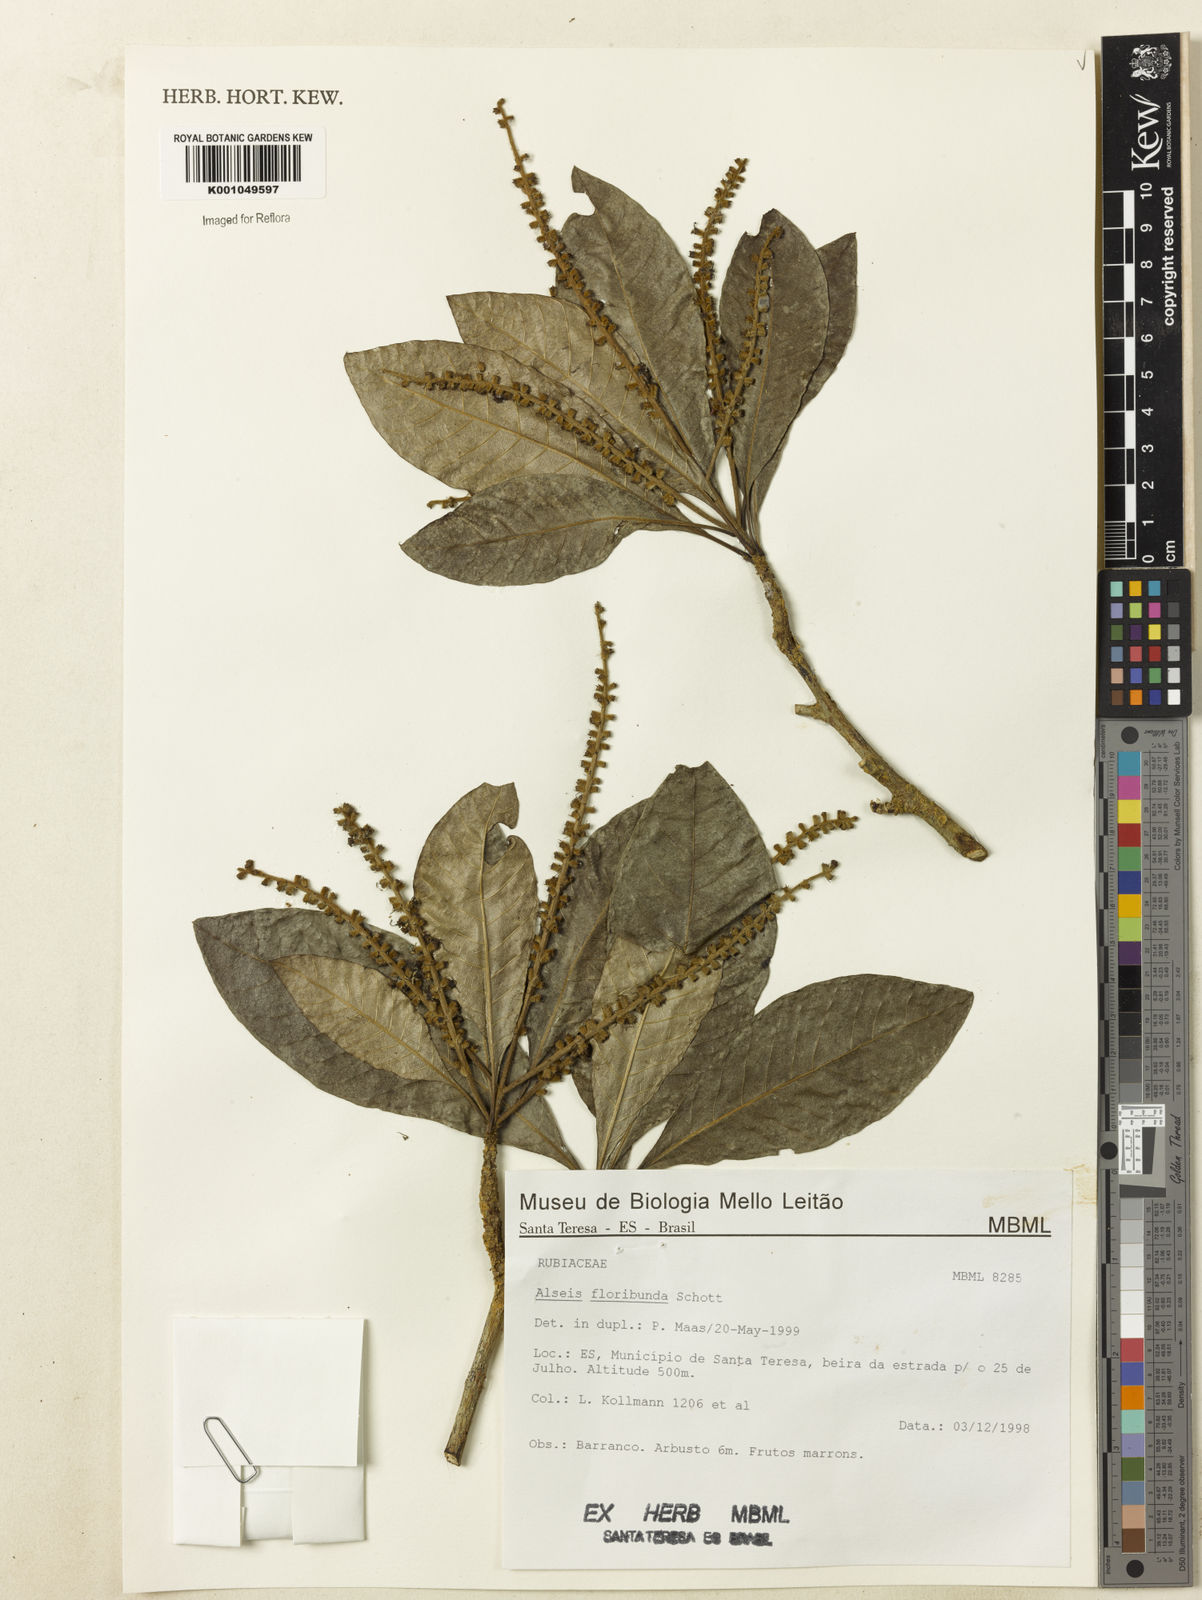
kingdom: Plantae
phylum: Tracheophyta
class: Magnoliopsida
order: Gentianales
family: Rubiaceae
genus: Alseis
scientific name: Alseis floribunda
